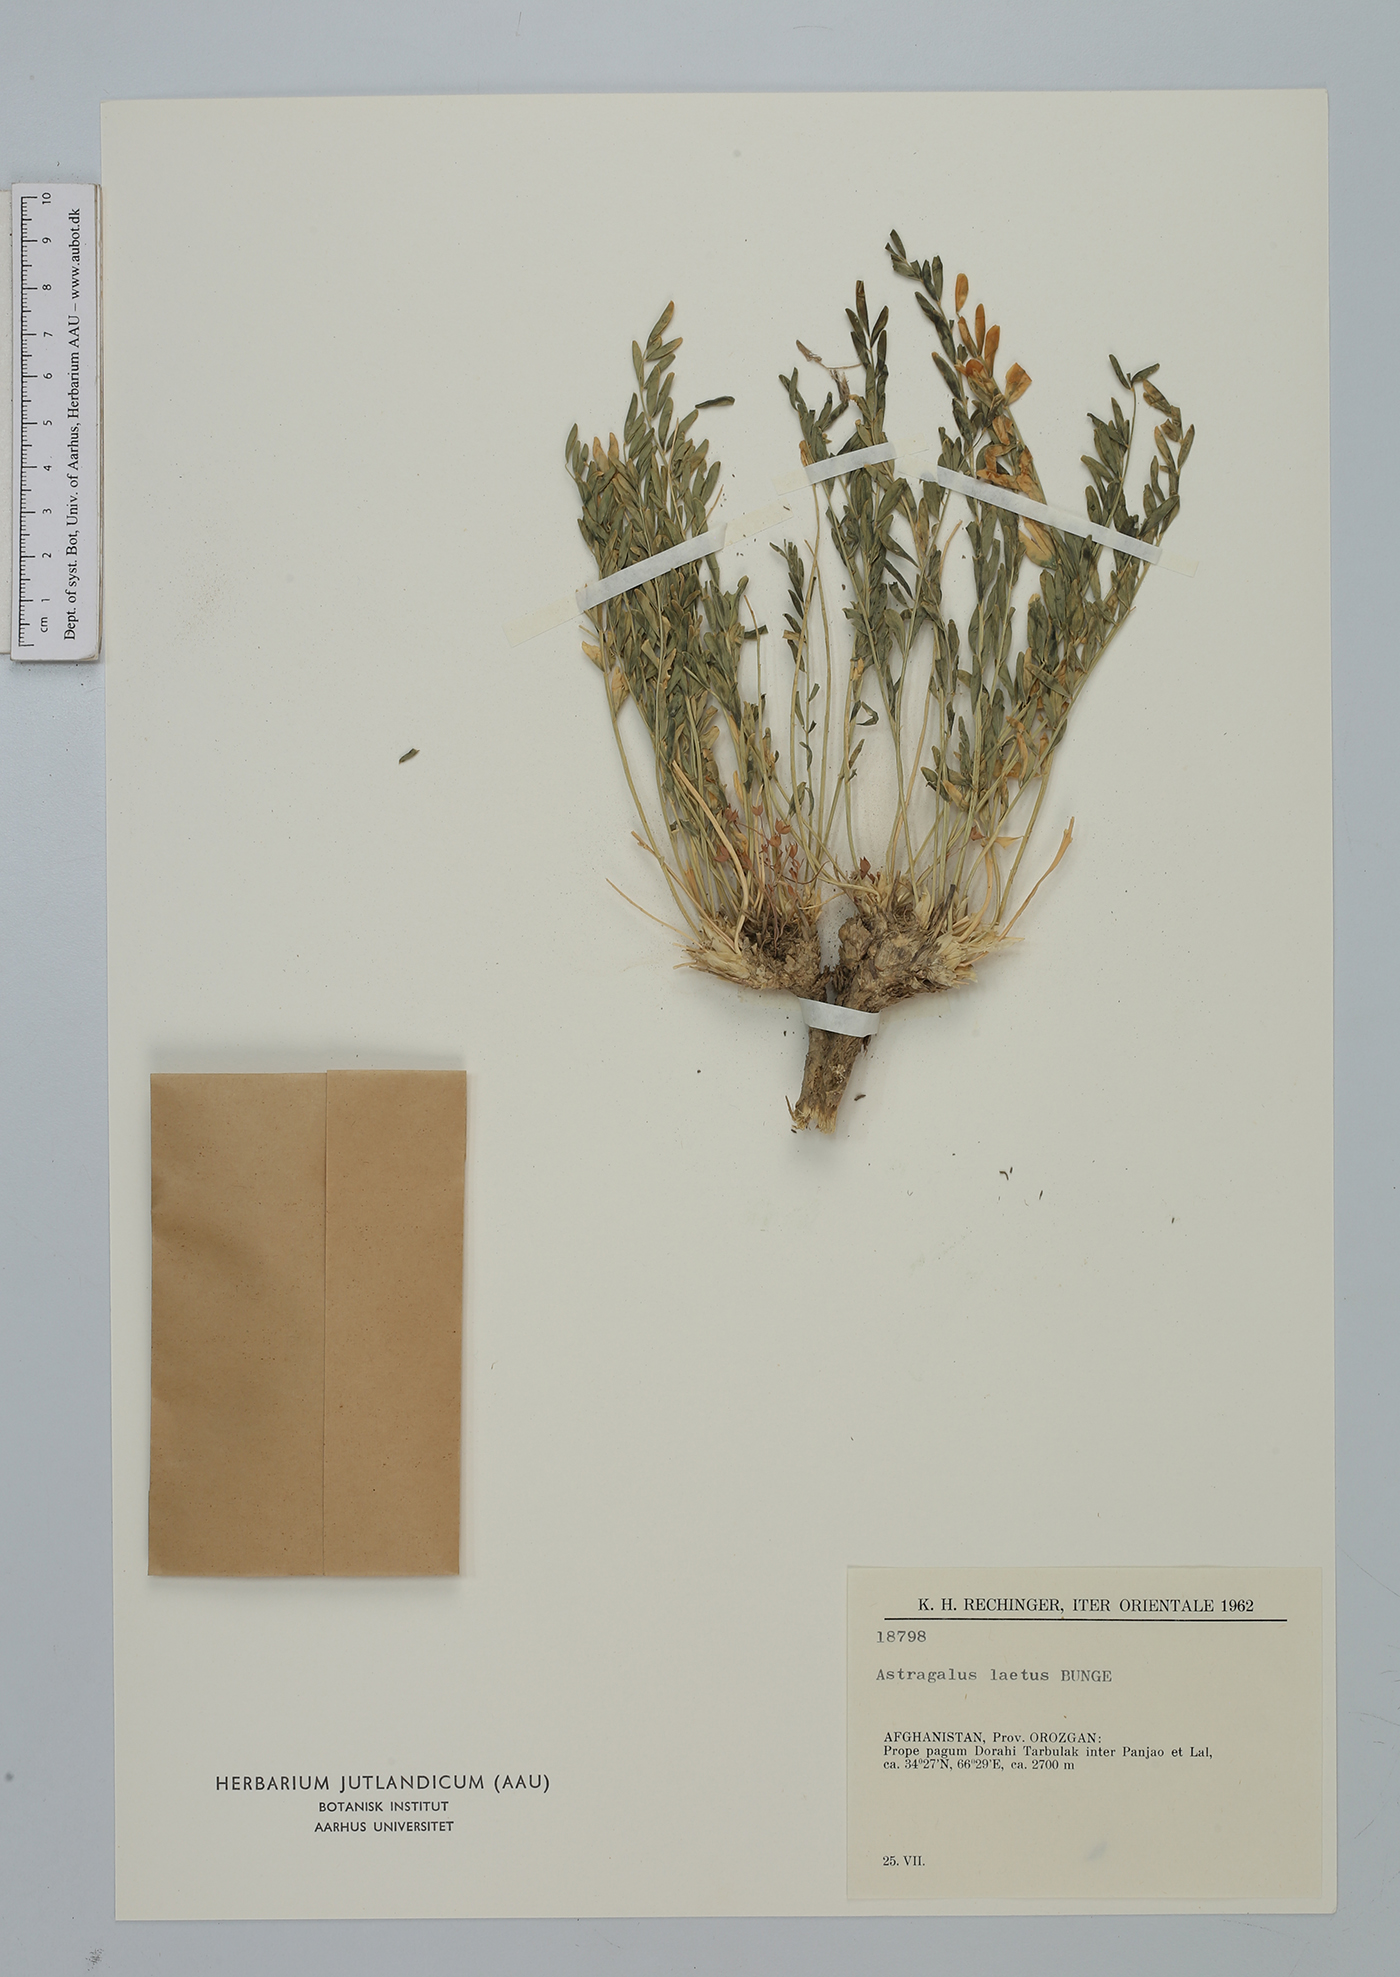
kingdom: Plantae
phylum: Tracheophyta
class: Magnoliopsida
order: Fabales
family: Fabaceae
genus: Astragalus
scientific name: Astragalus laetus
